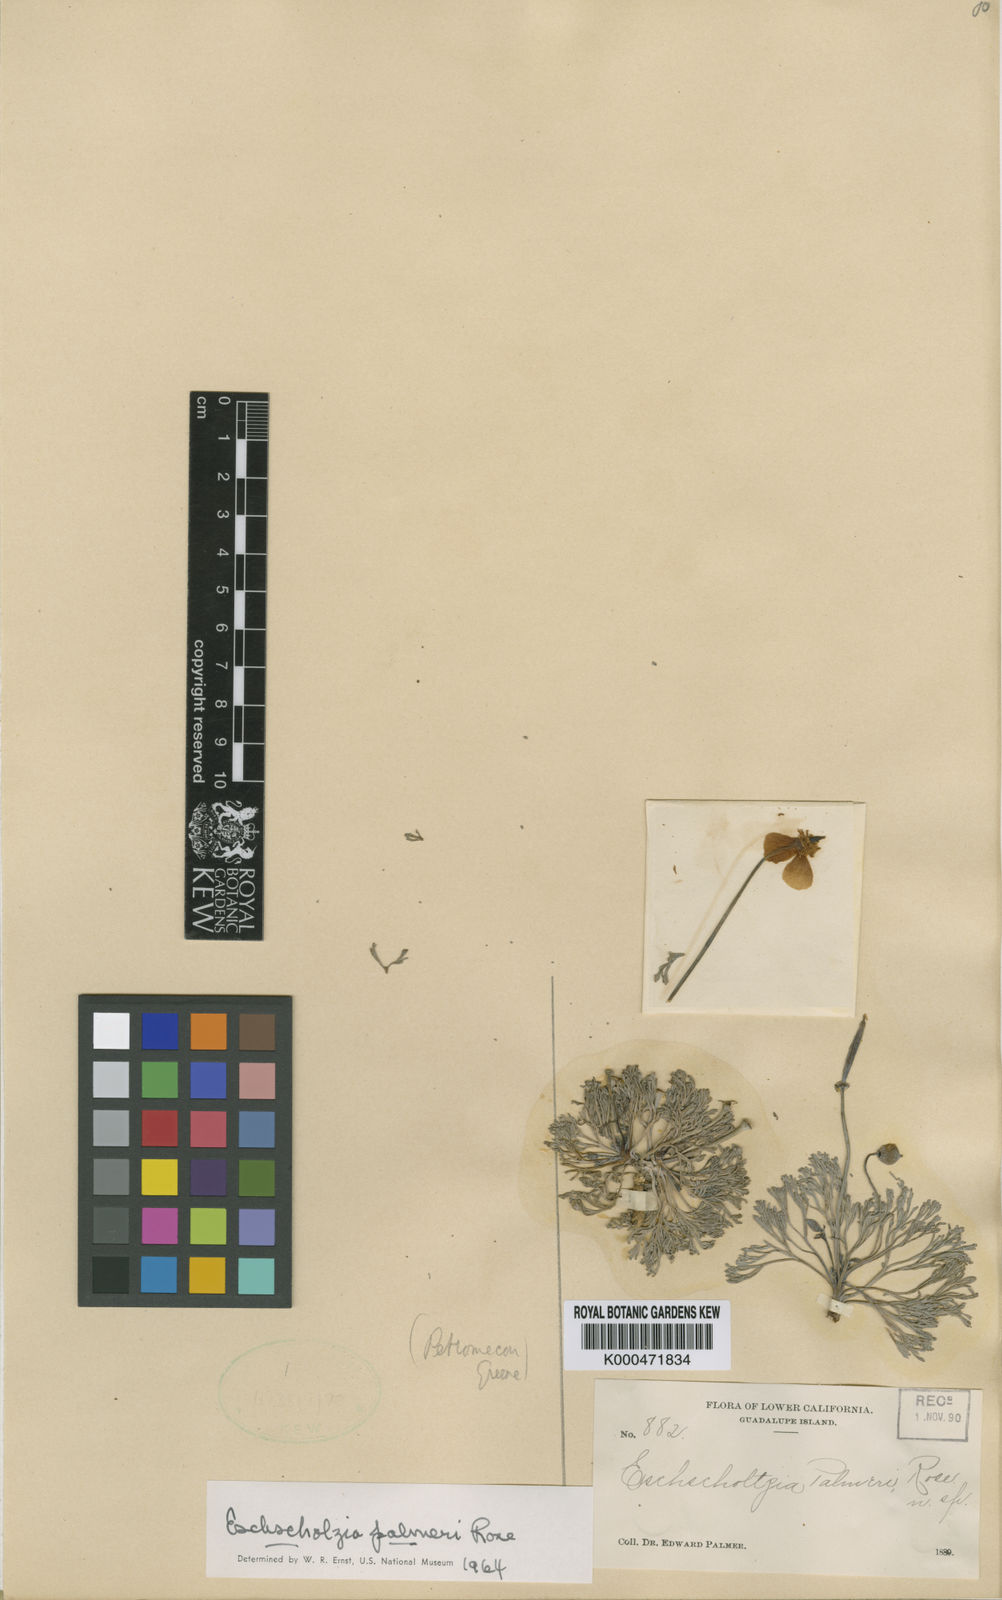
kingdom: Plantae
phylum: Tracheophyta
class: Magnoliopsida
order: Ranunculales
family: Papaveraceae
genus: Eschscholzia
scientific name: Eschscholzia palmeri
